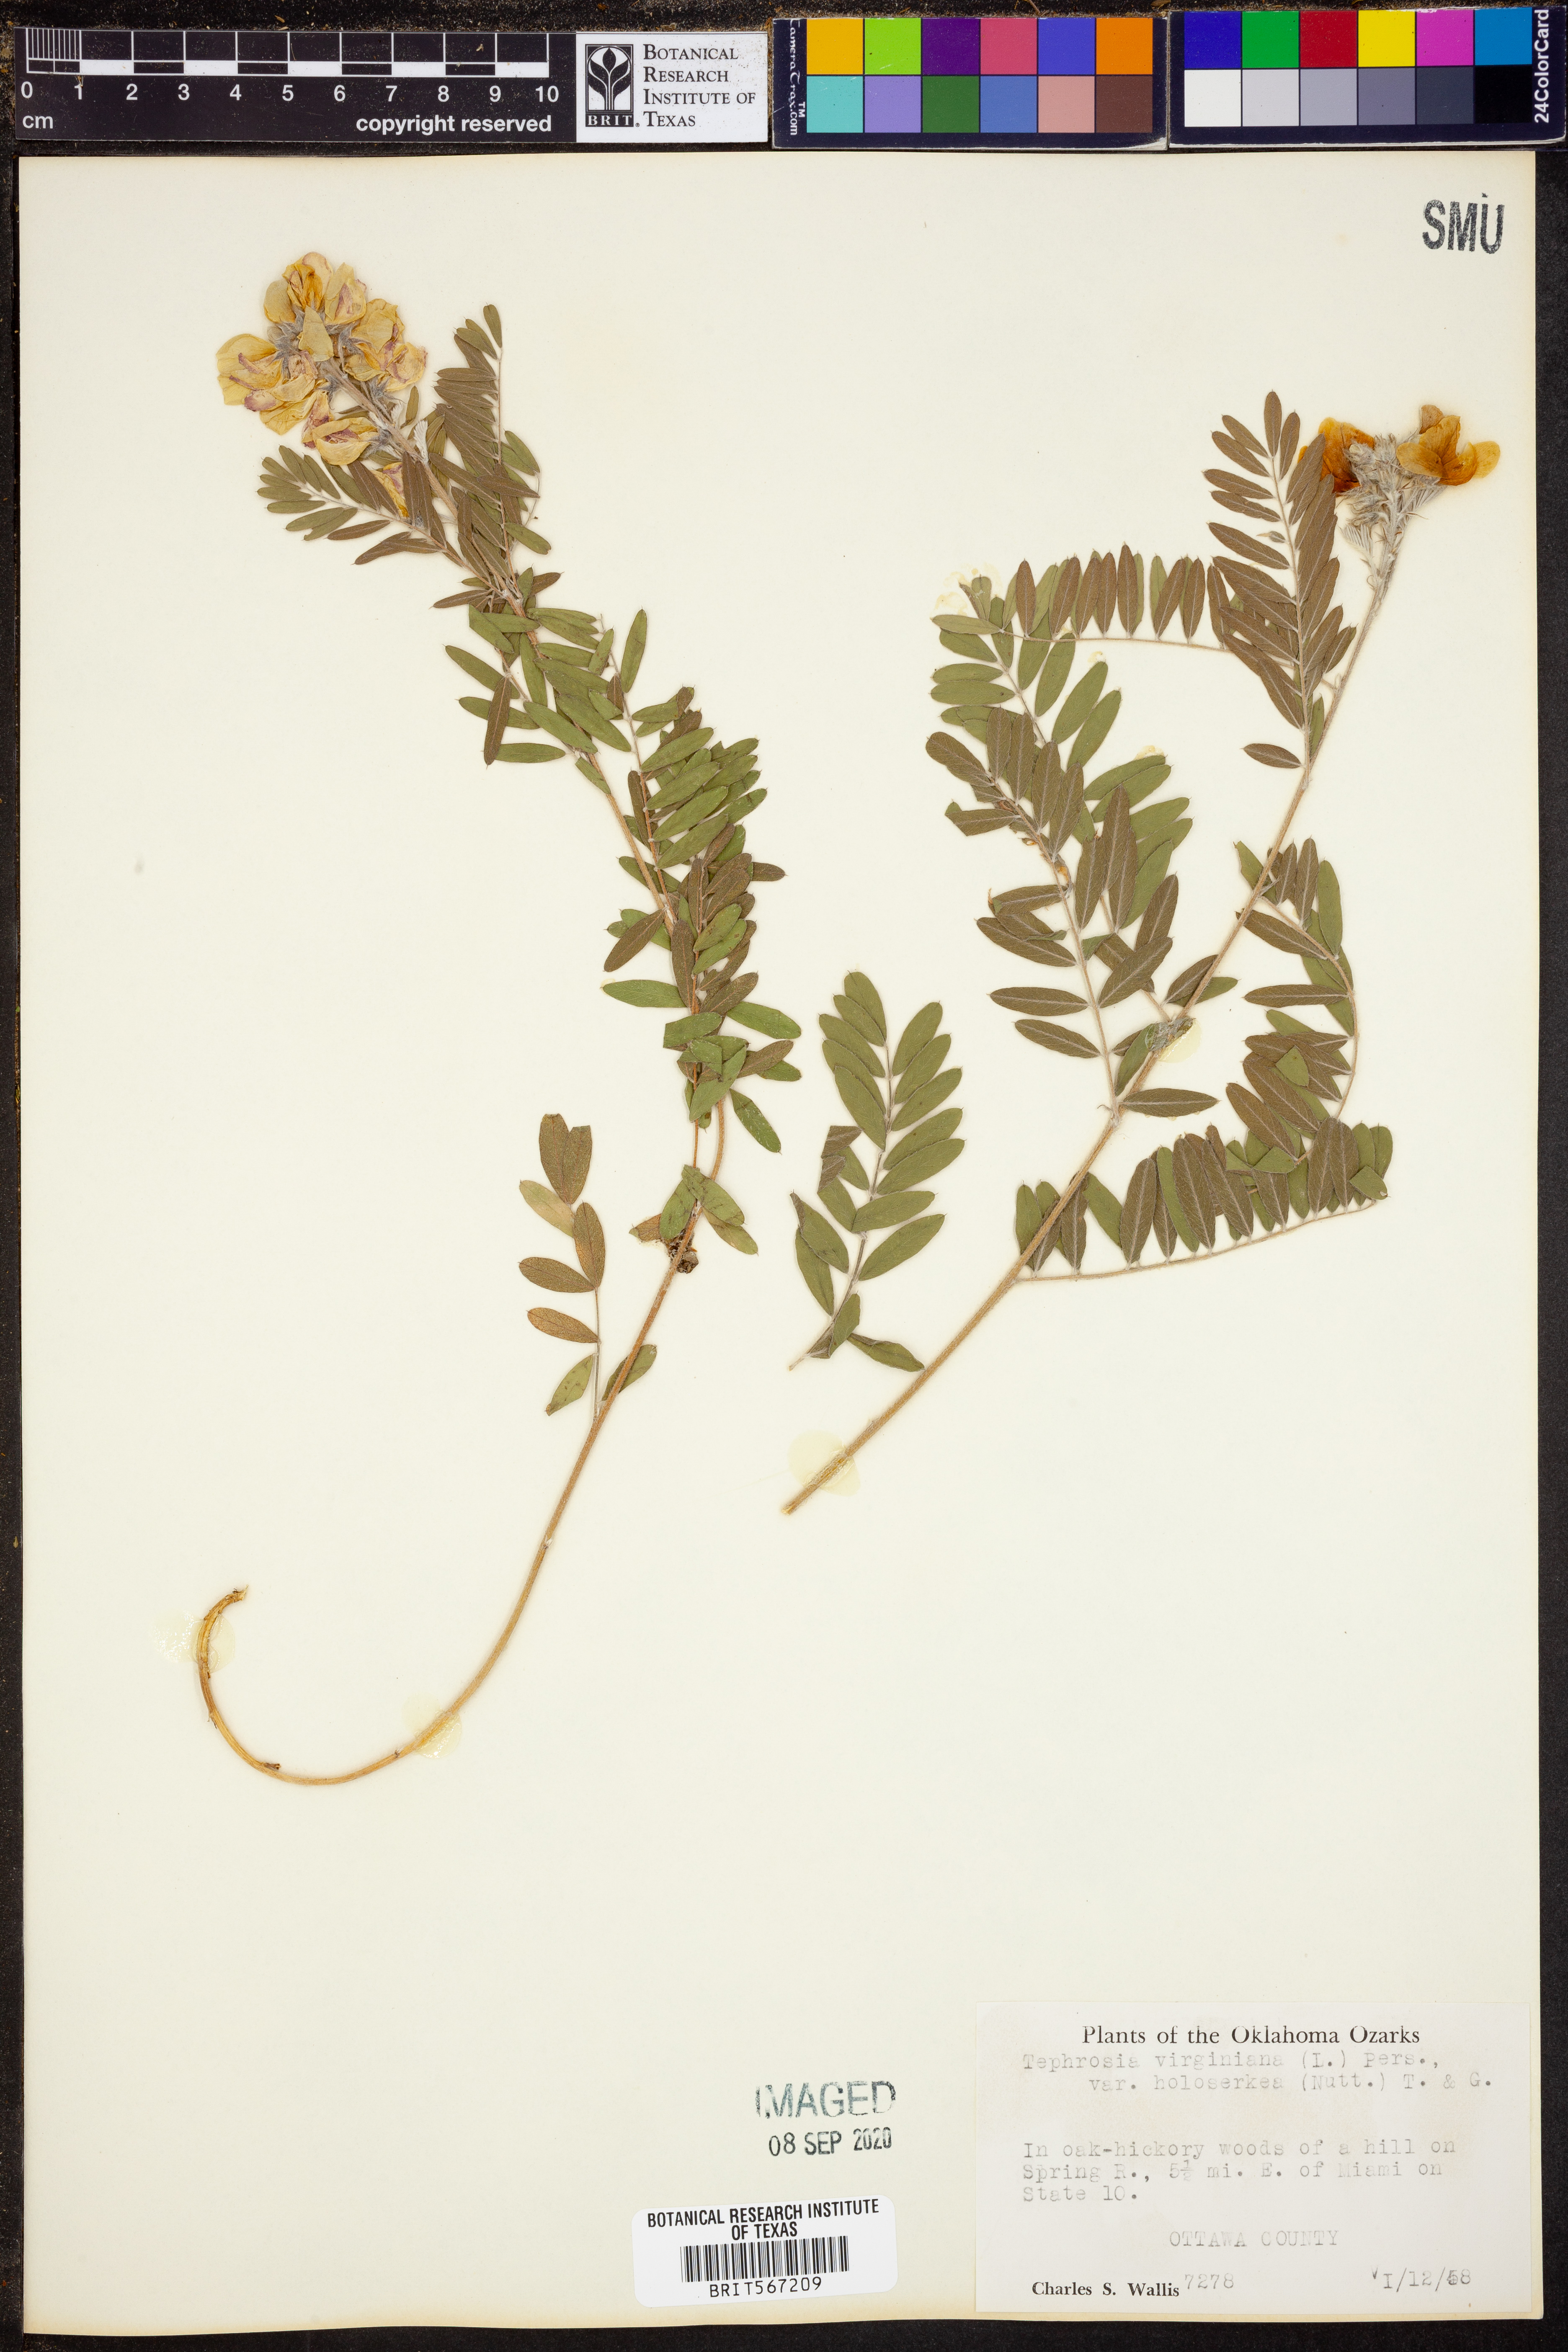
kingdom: Plantae
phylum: Tracheophyta
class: Magnoliopsida
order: Fabales
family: Fabaceae
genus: Tephrosia
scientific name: Tephrosia virginiana
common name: Rabbit-pea
